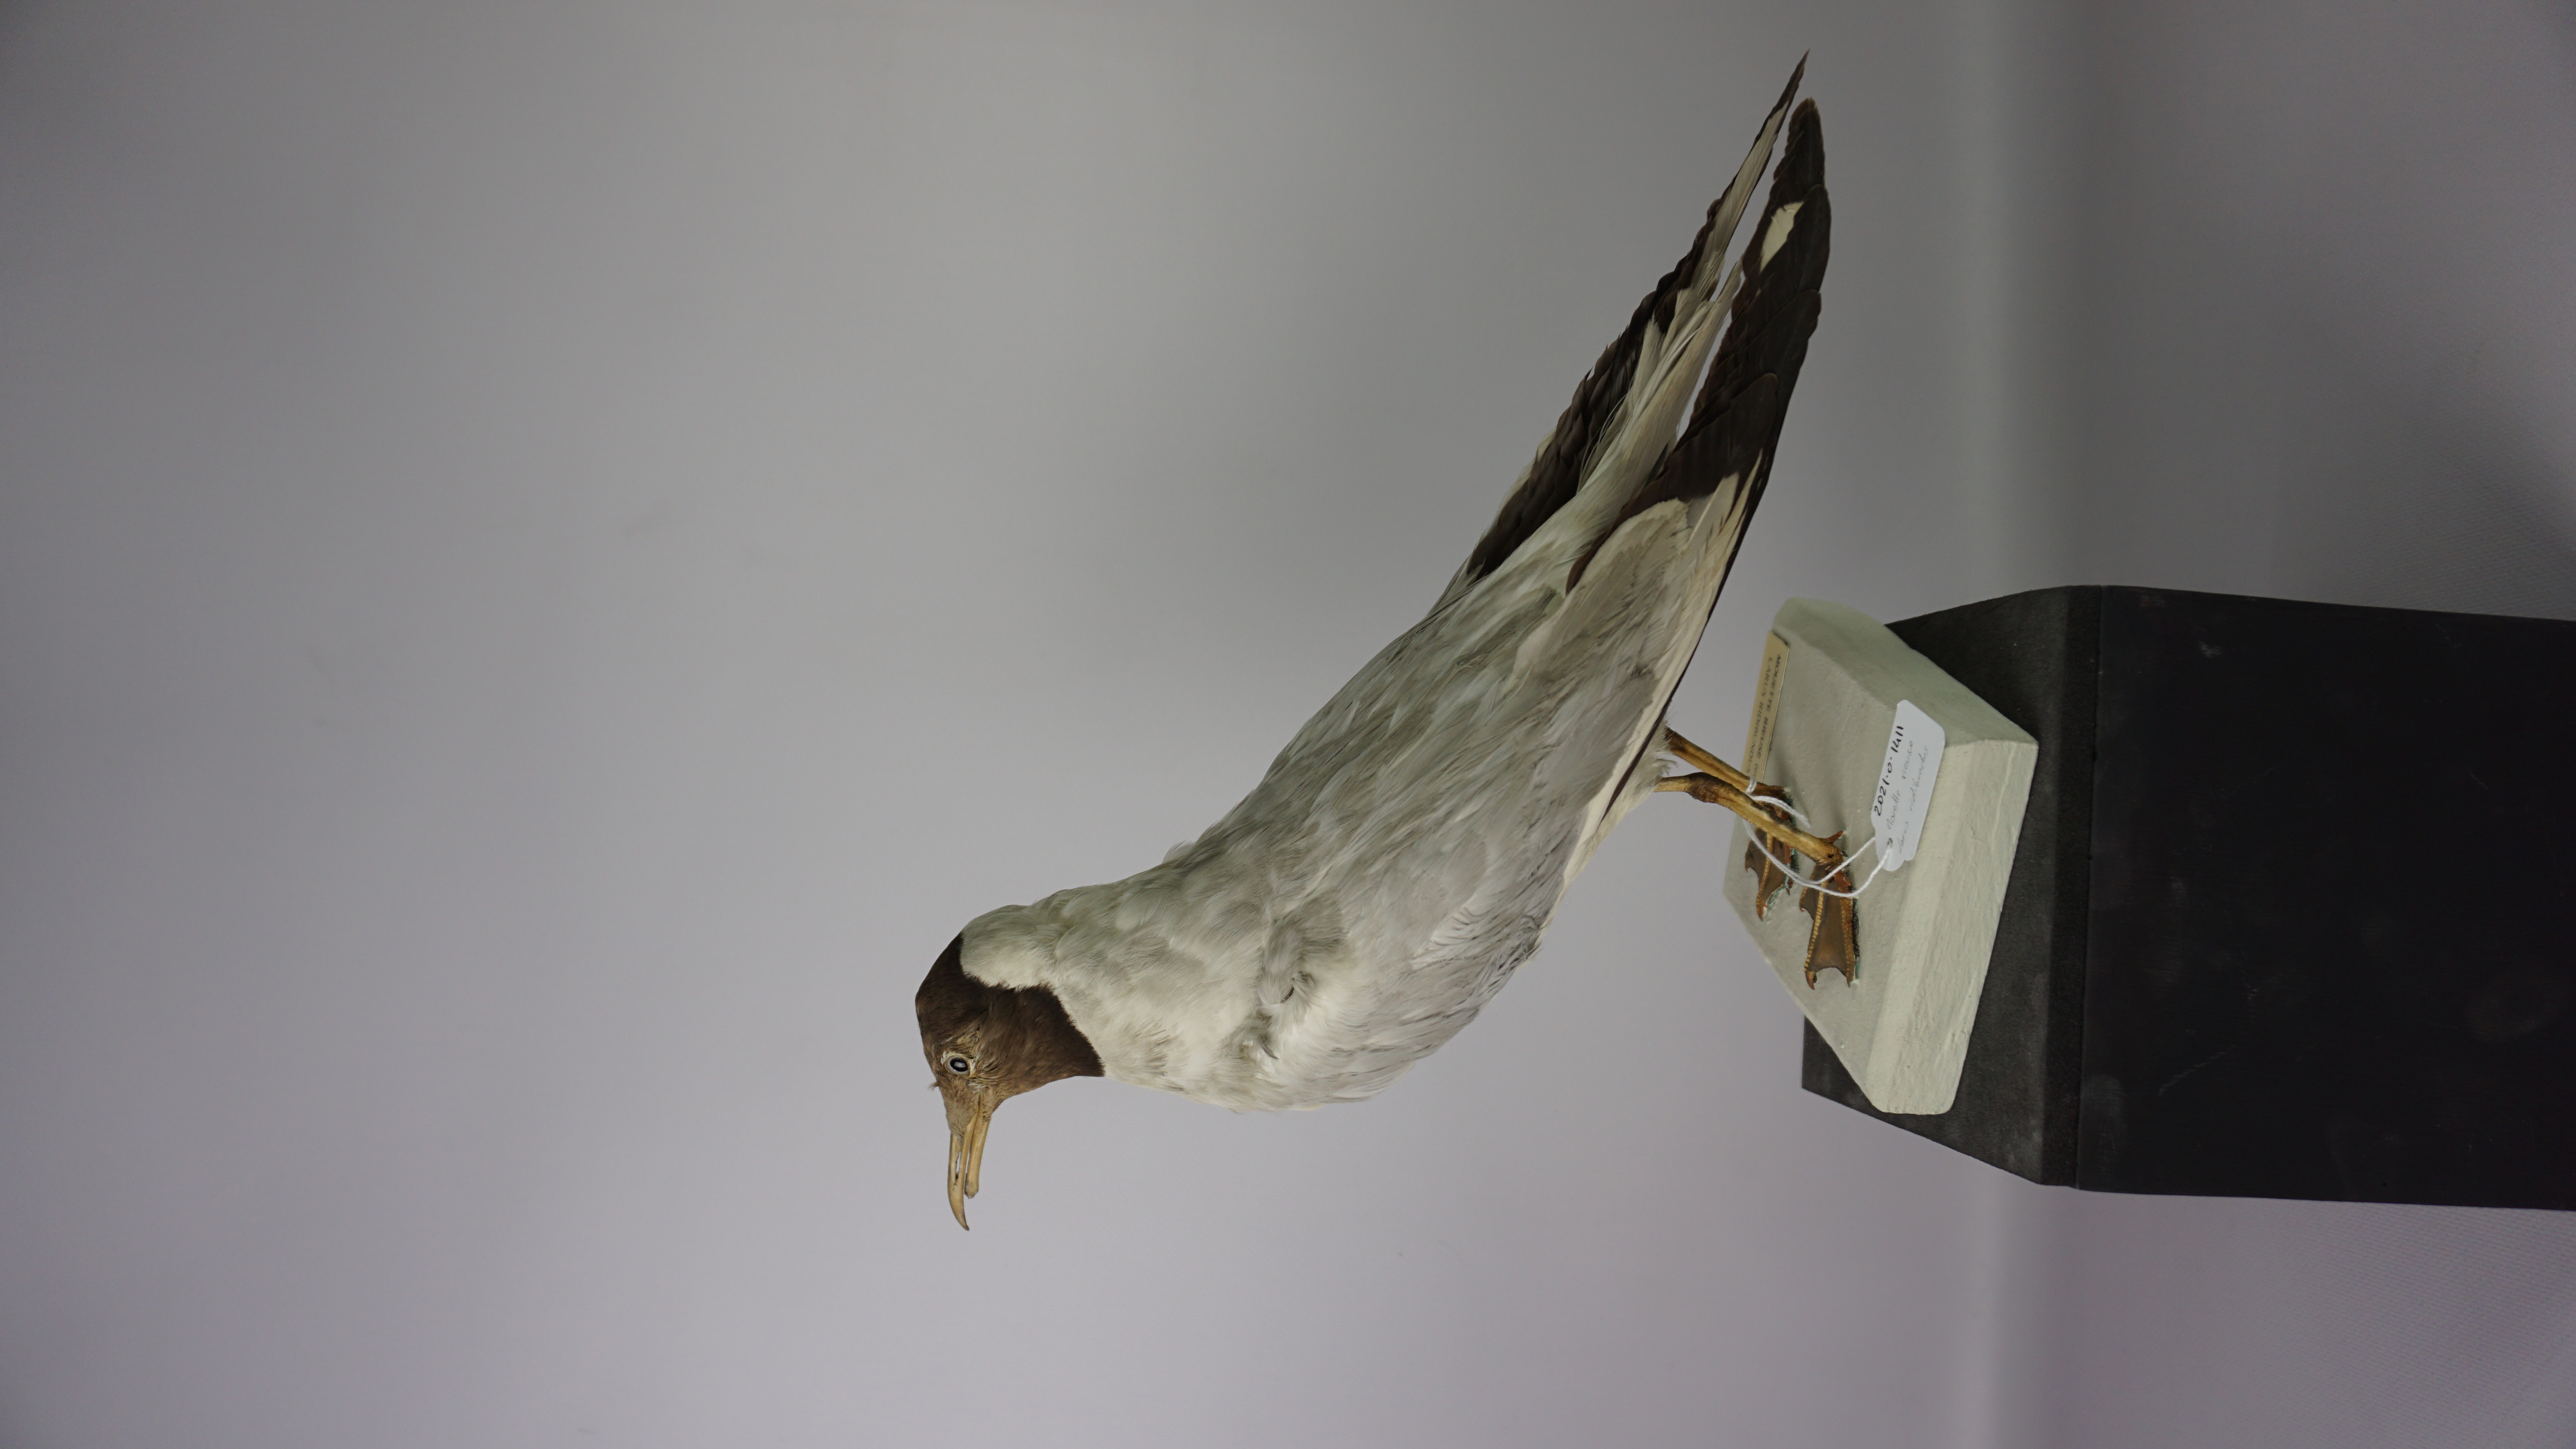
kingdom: Animalia
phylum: Chordata
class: Aves
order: Charadriiformes
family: Laridae
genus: Chroicocephalus
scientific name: Chroicocephalus ridibundus
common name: Black-headed gull
